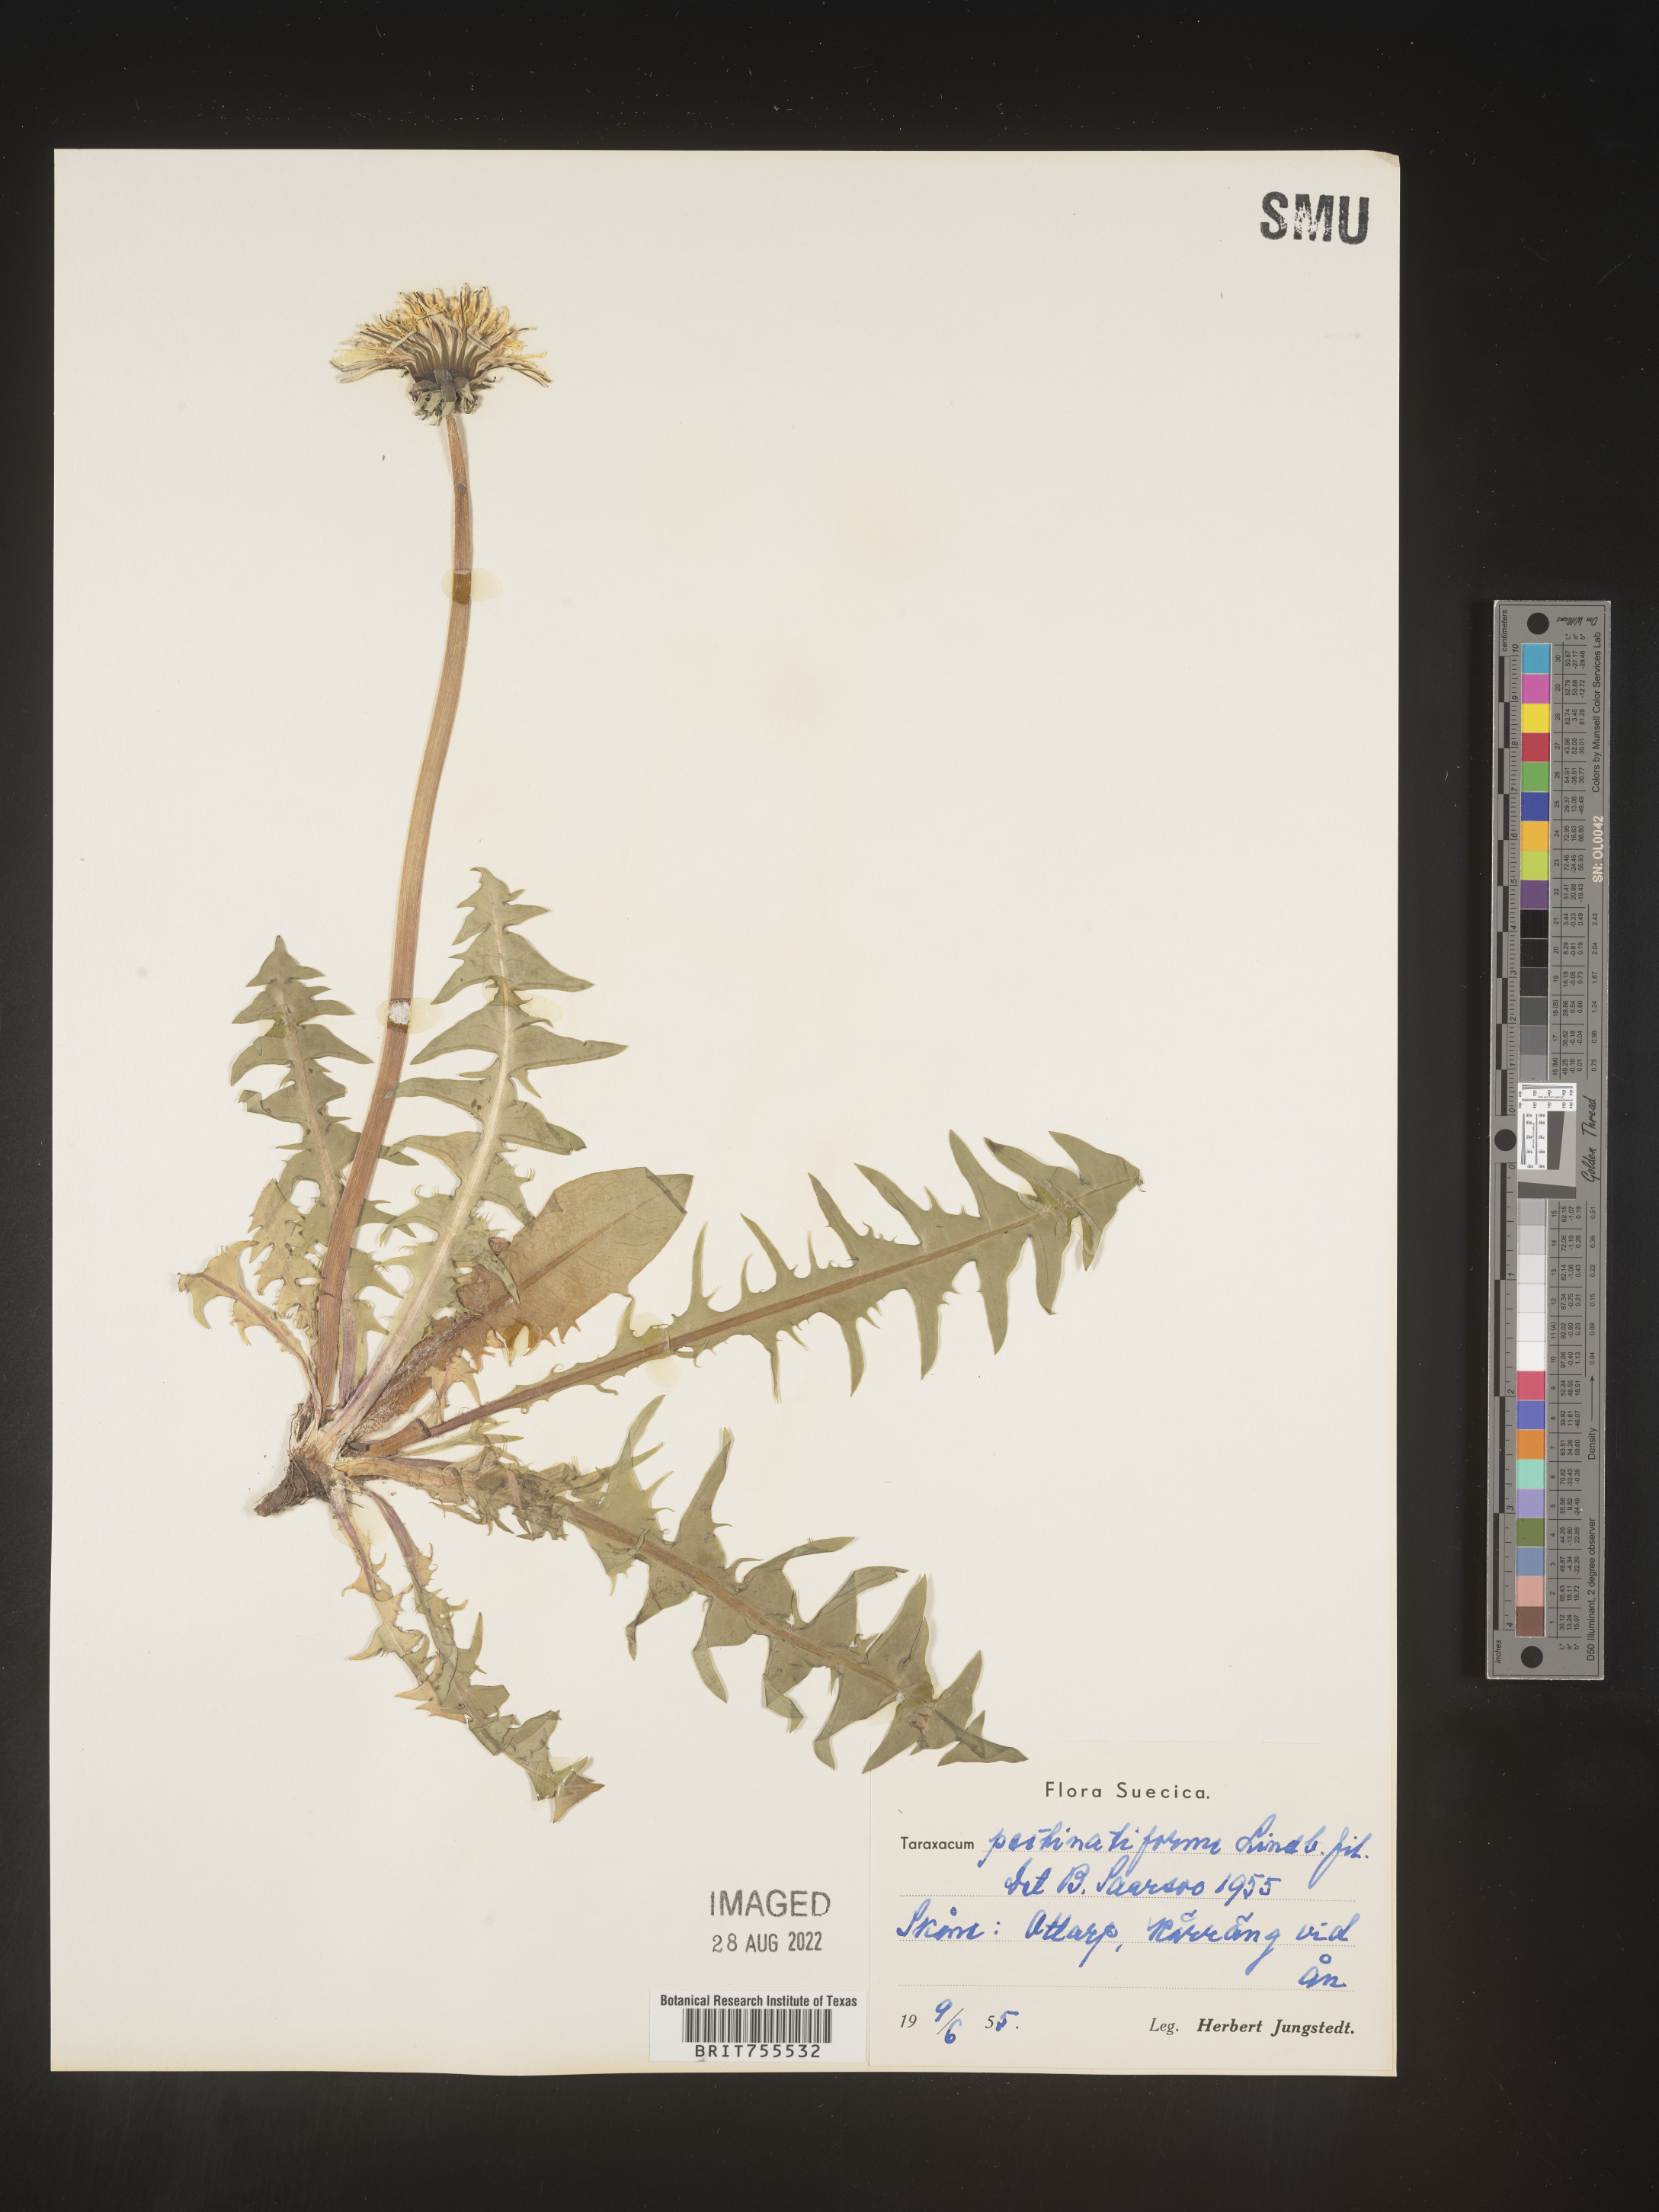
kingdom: Plantae
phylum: Tracheophyta
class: Magnoliopsida
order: Asterales
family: Asteraceae
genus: Taraxacum
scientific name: Taraxacum
